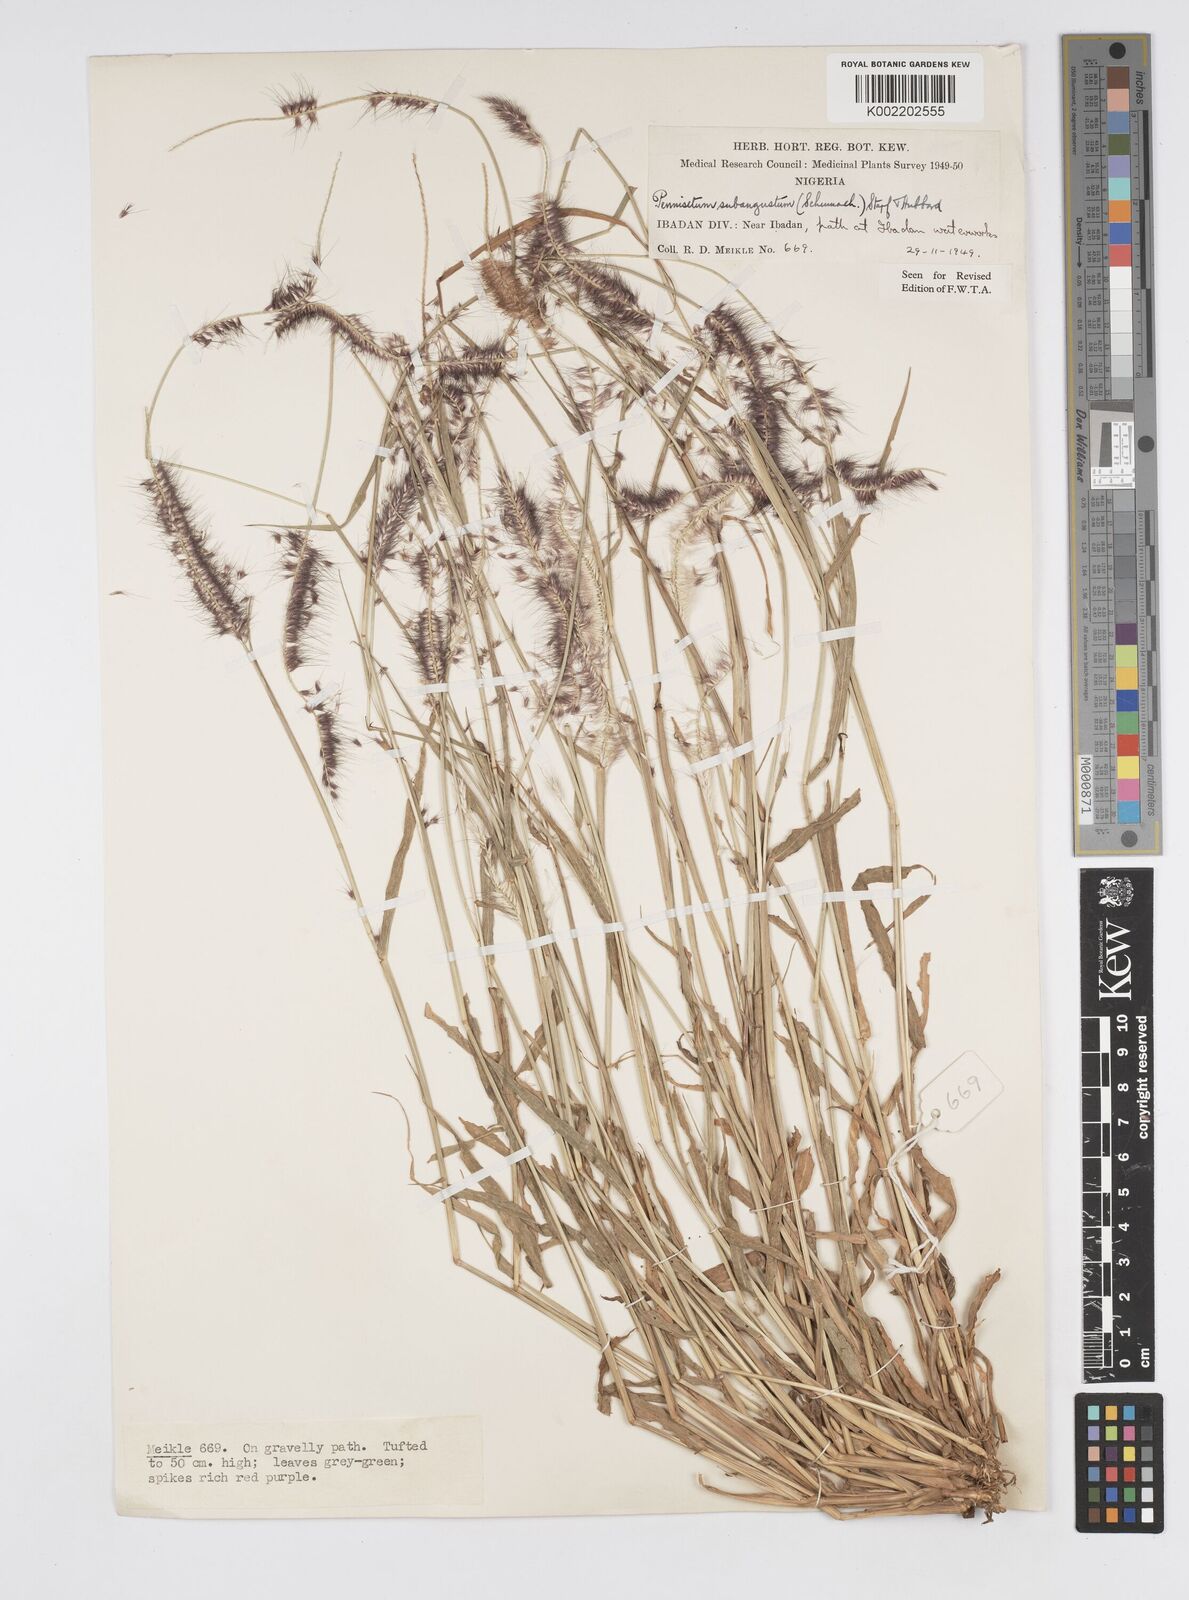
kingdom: Plantae
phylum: Tracheophyta
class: Liliopsida
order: Poales
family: Poaceae
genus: Setaria
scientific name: Setaria parviflora
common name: Knotroot bristle-grass
